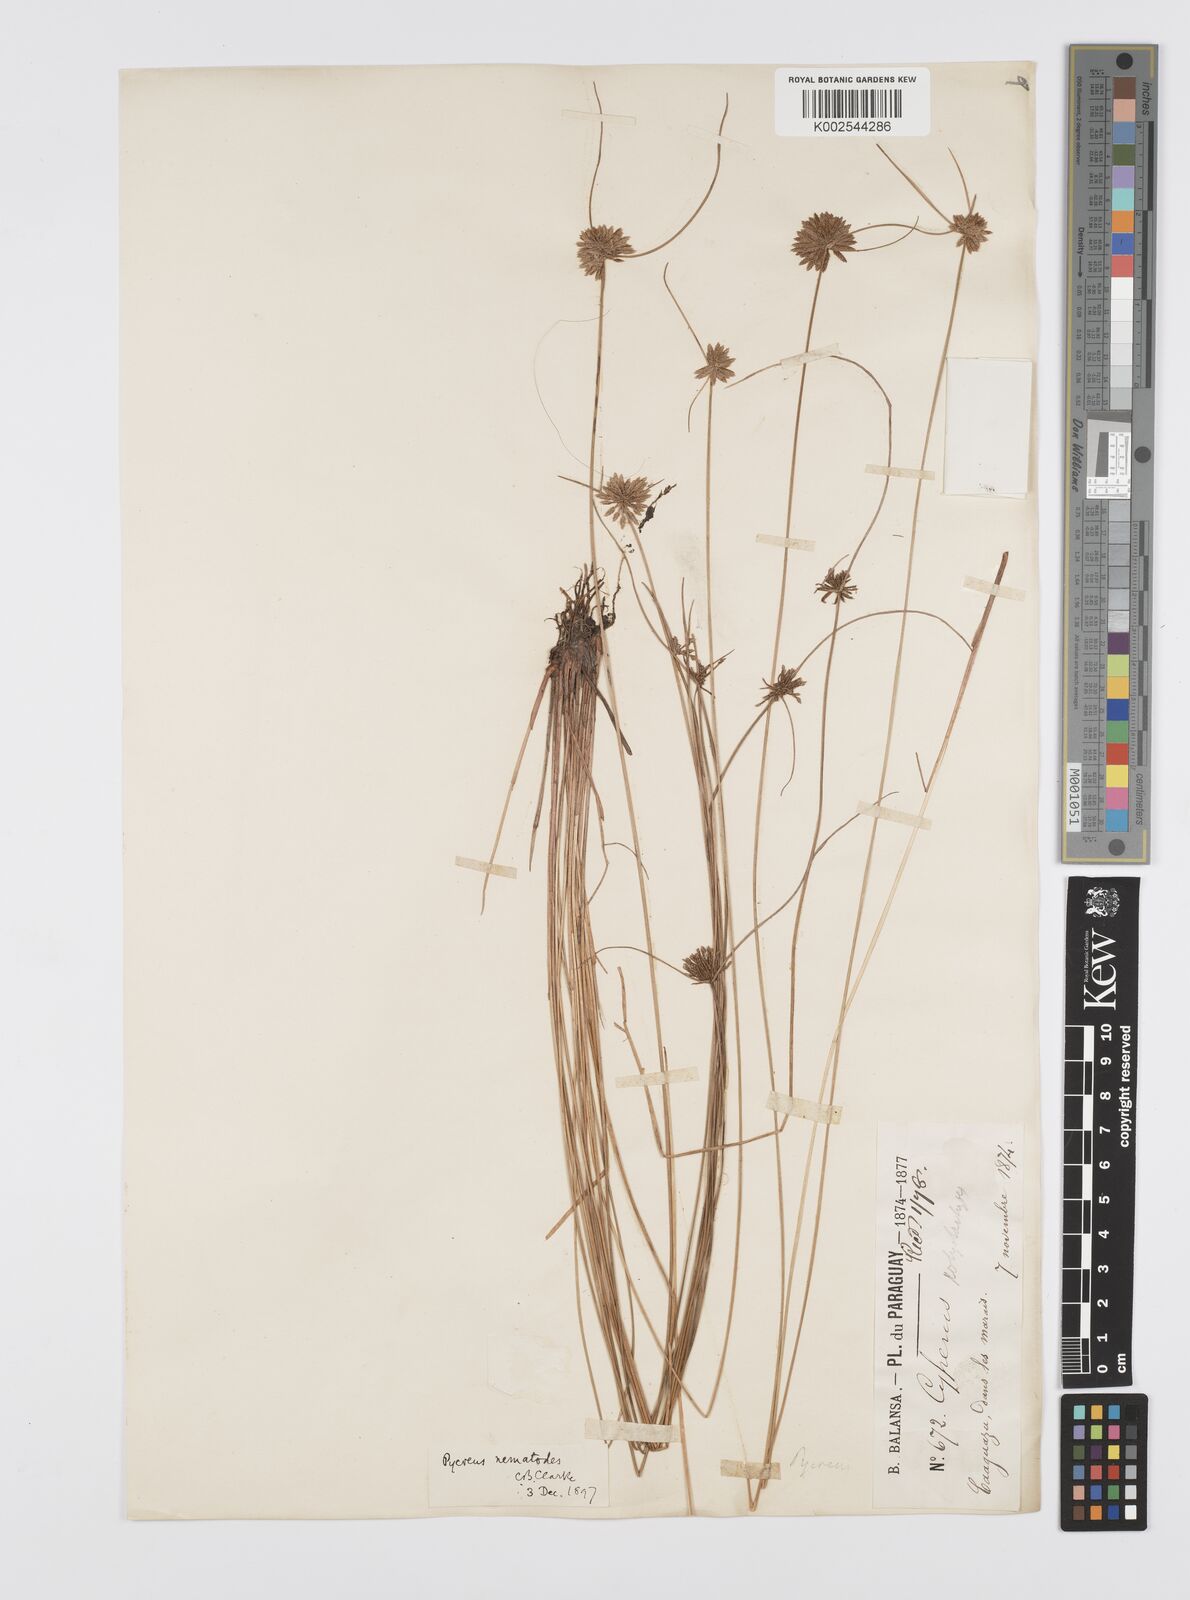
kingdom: Plantae
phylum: Tracheophyta
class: Liliopsida
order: Poales
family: Cyperaceae
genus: Cyperus
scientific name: Cyperus megapotamicus
